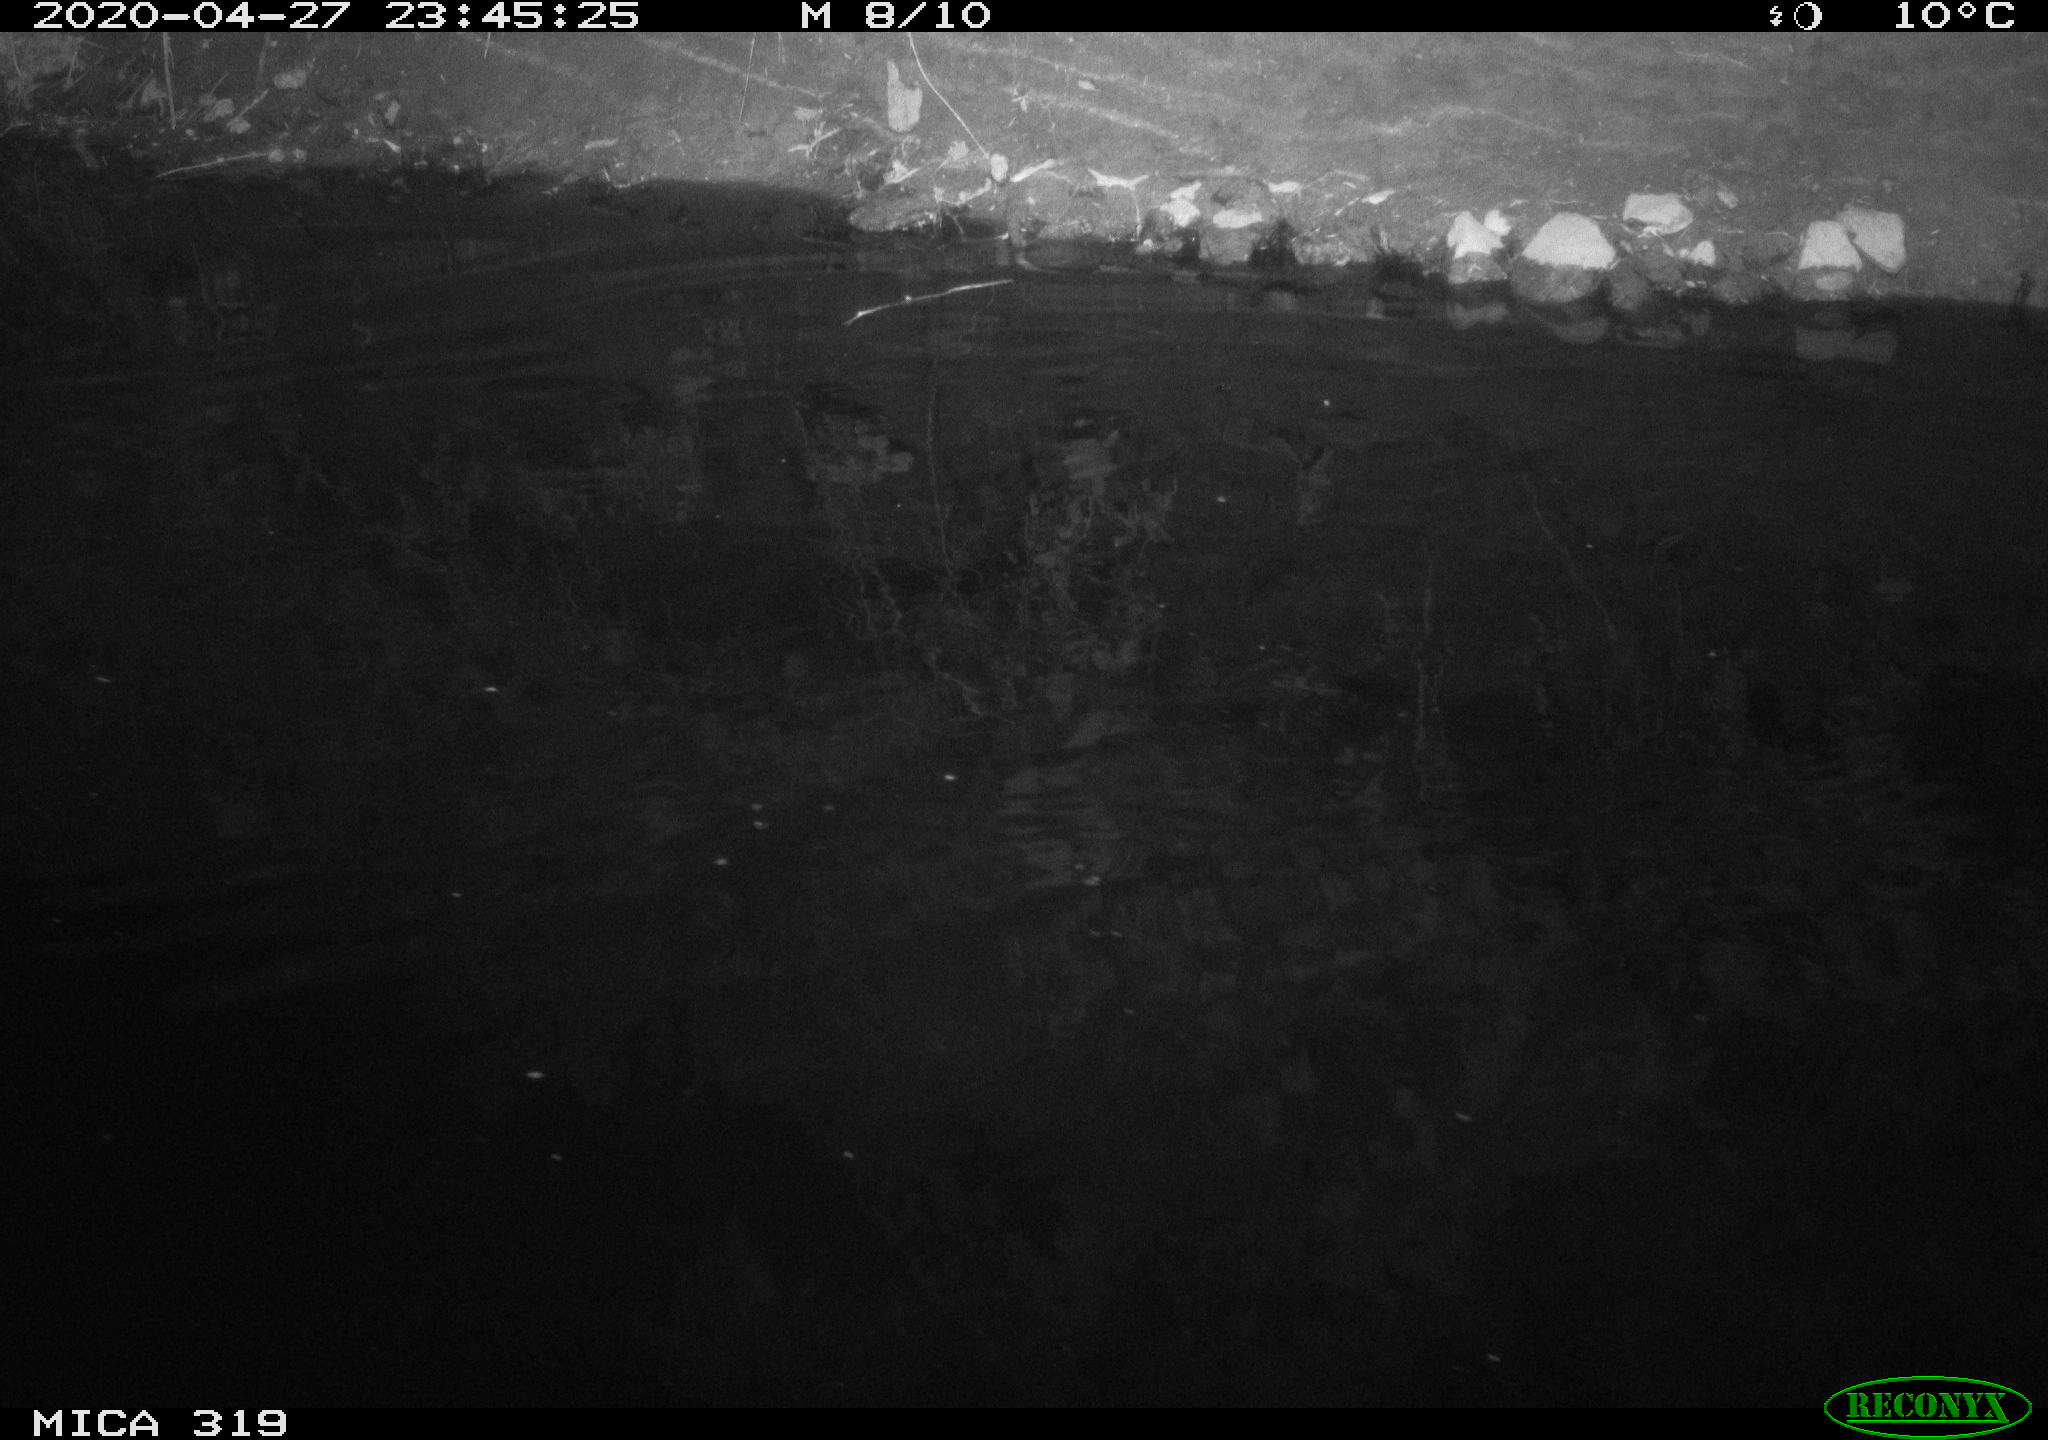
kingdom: Animalia
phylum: Chordata
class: Aves
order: Anseriformes
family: Anatidae
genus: Anas
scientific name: Anas platyrhynchos
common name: Mallard
